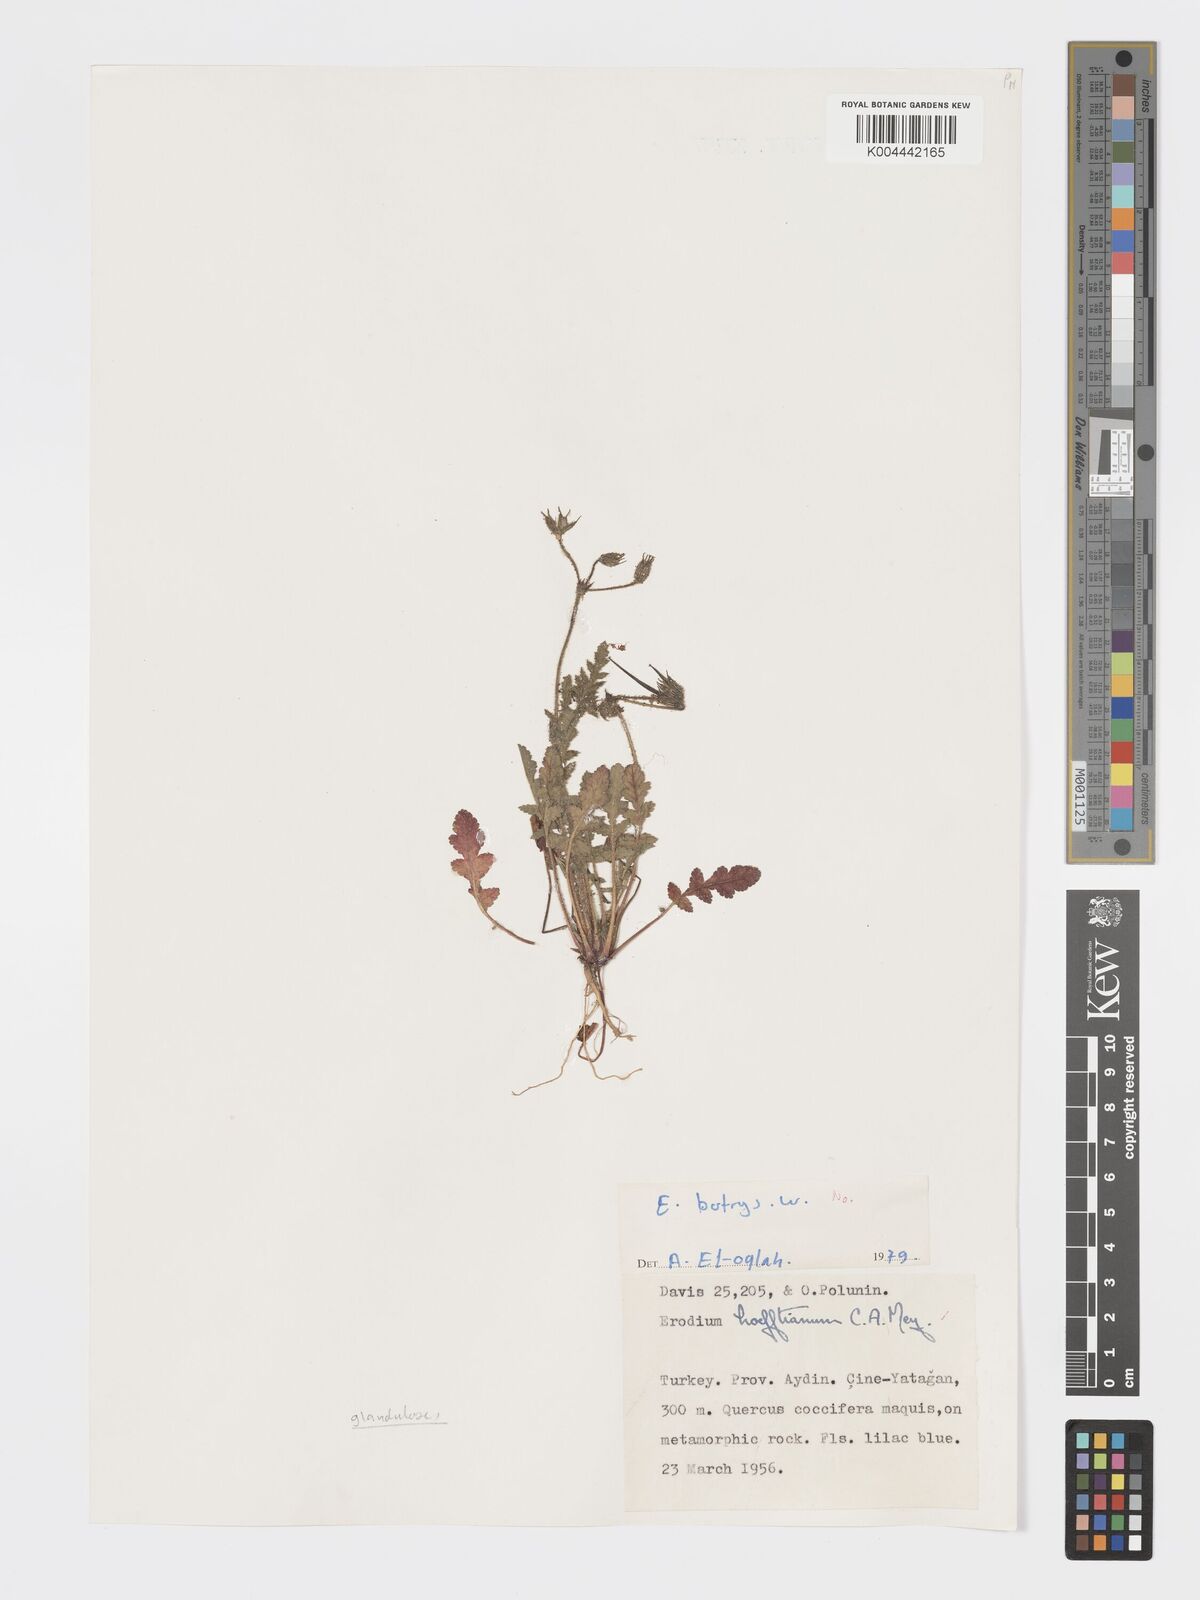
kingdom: Plantae
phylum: Tracheophyta
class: Magnoliopsida
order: Geraniales
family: Geraniaceae
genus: Erodium
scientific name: Erodium hoefftianum
